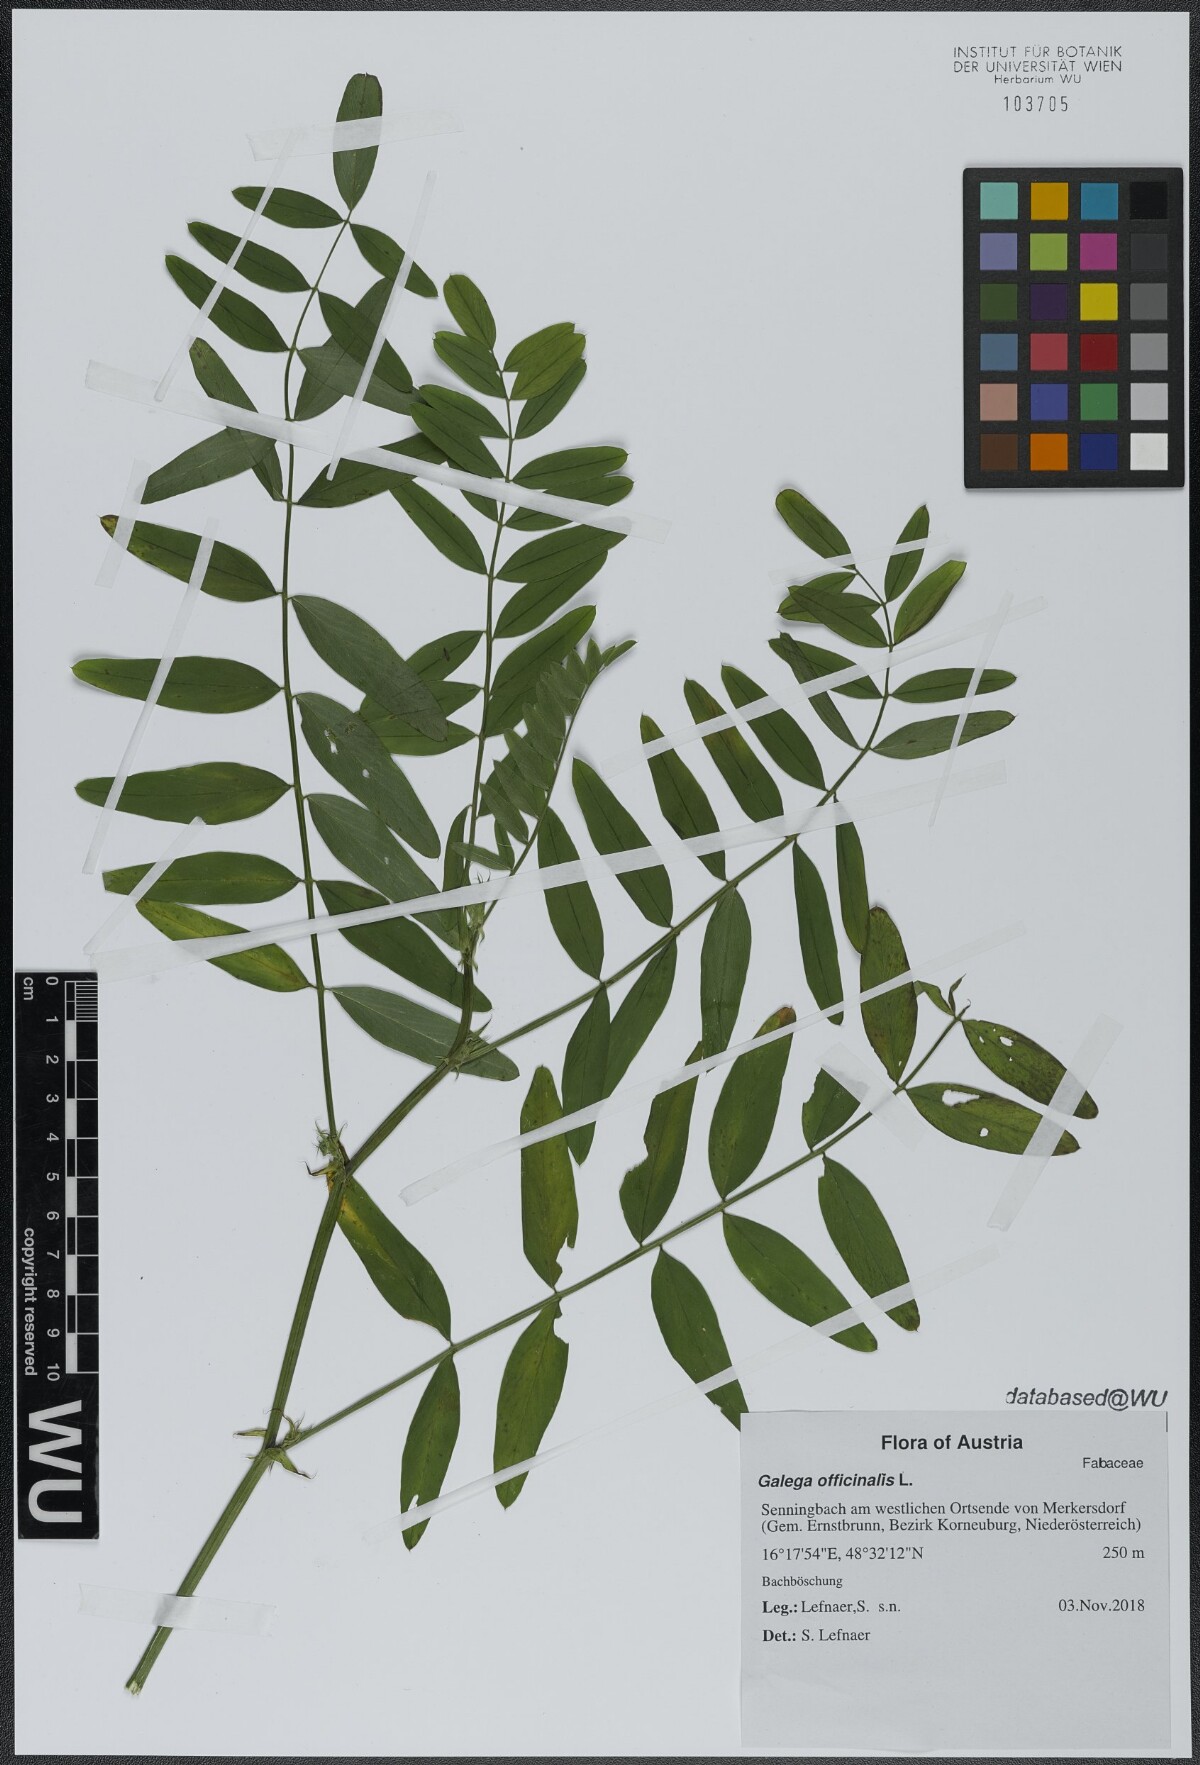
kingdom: Plantae
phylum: Tracheophyta
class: Magnoliopsida
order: Fabales
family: Fabaceae
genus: Galega
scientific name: Galega officinalis
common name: Goat's-rue
